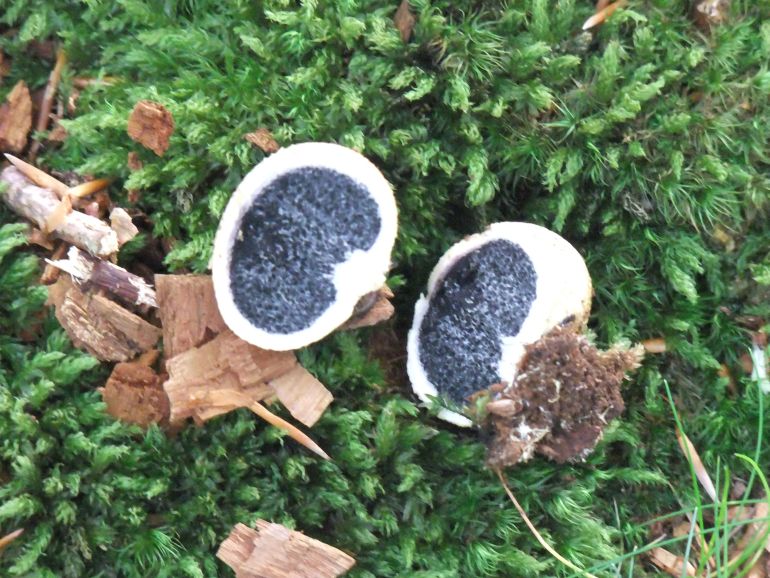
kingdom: Fungi
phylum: Basidiomycota
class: Agaricomycetes
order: Boletales
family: Sclerodermataceae
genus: Scleroderma
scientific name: Scleroderma citrinum
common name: almindelig bruskbold
